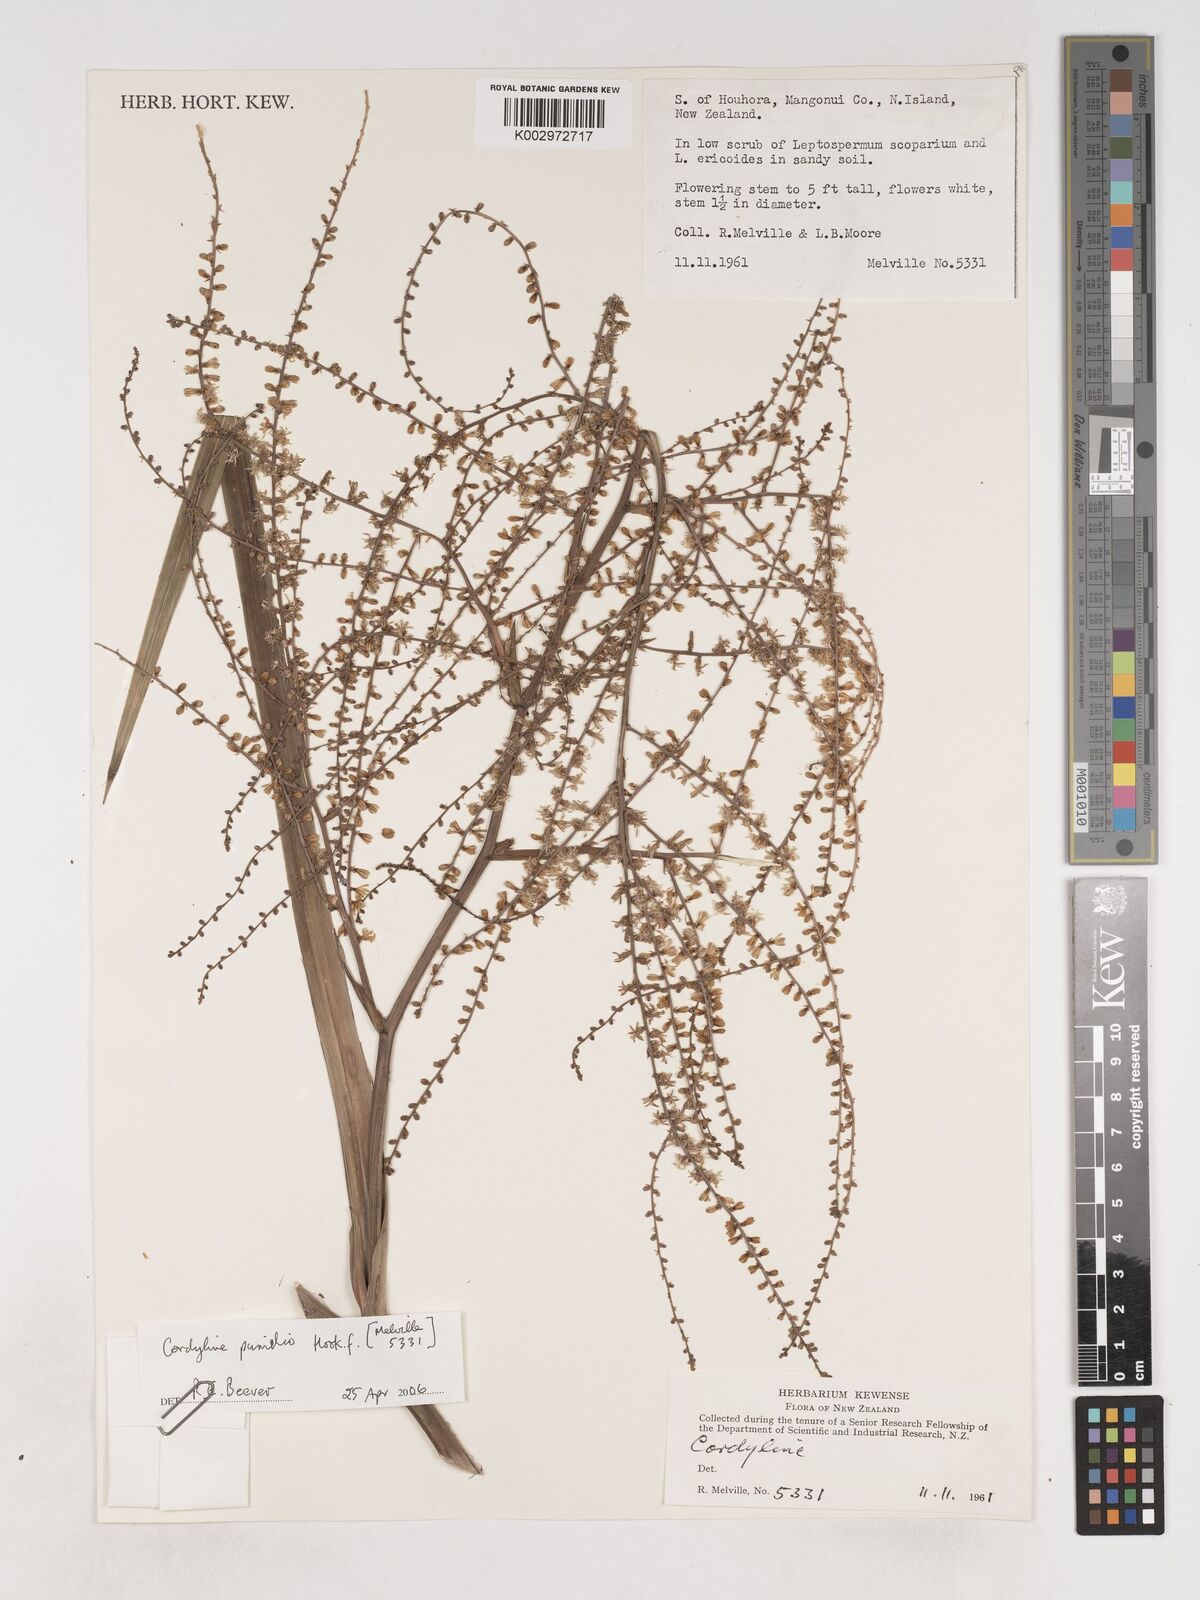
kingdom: Plantae
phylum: Tracheophyta
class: Liliopsida
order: Asparagales
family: Asparagaceae
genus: Cordyline
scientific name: Cordyline
